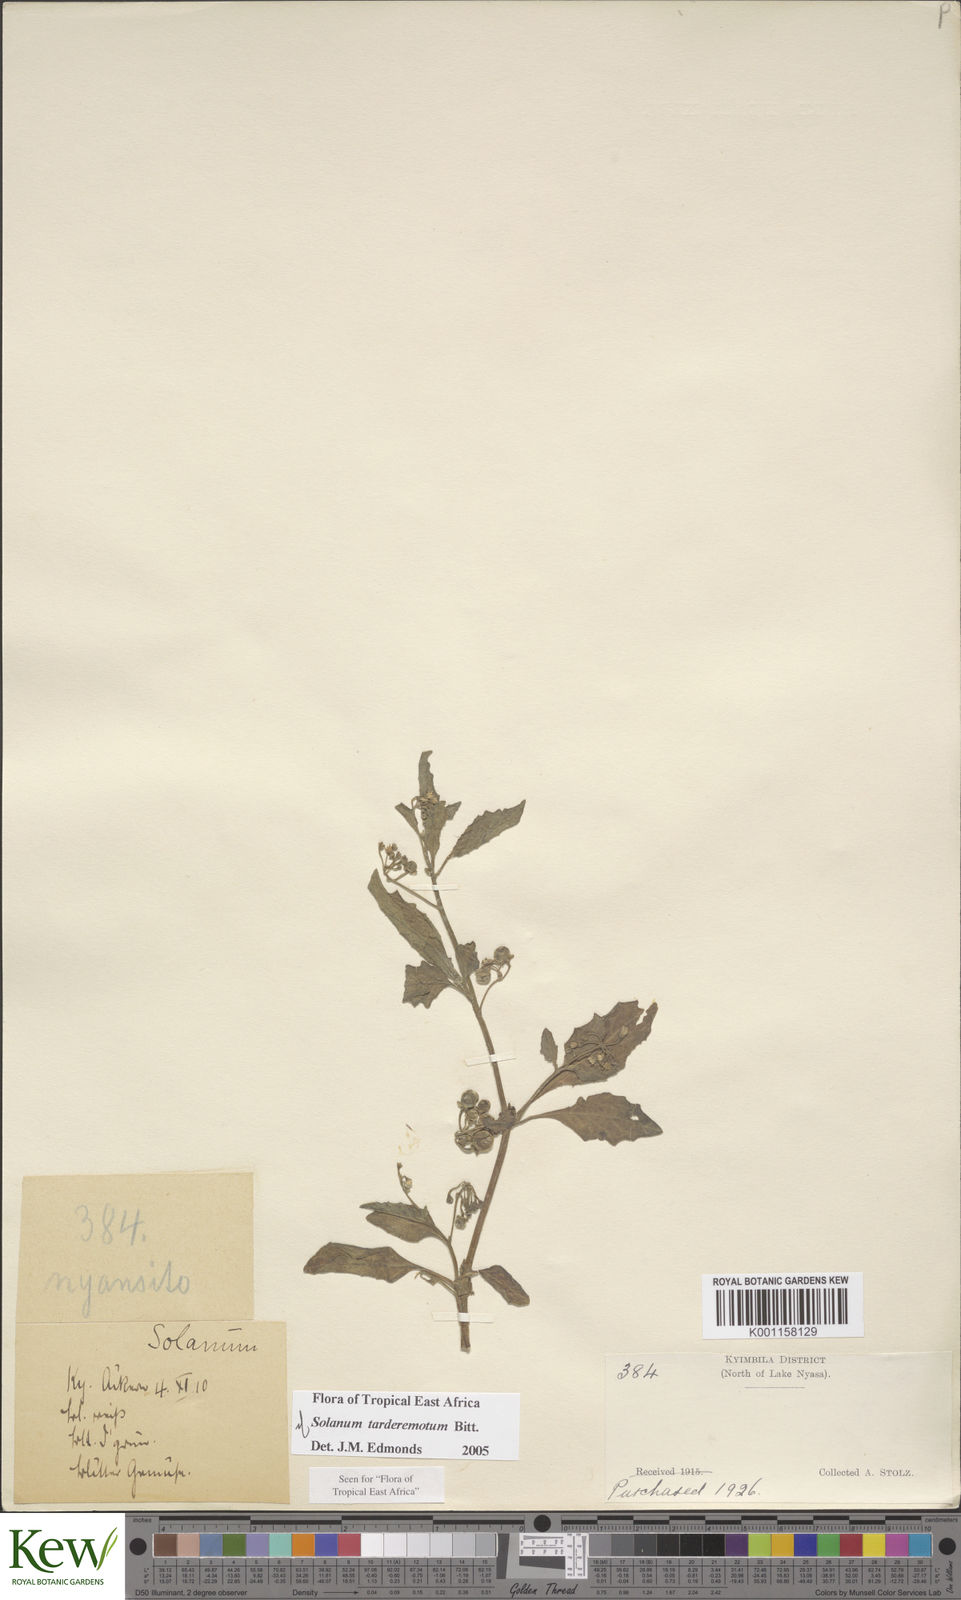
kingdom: Plantae
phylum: Tracheophyta
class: Magnoliopsida
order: Solanales
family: Solanaceae
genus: Solanum
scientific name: Solanum tarderemotum
